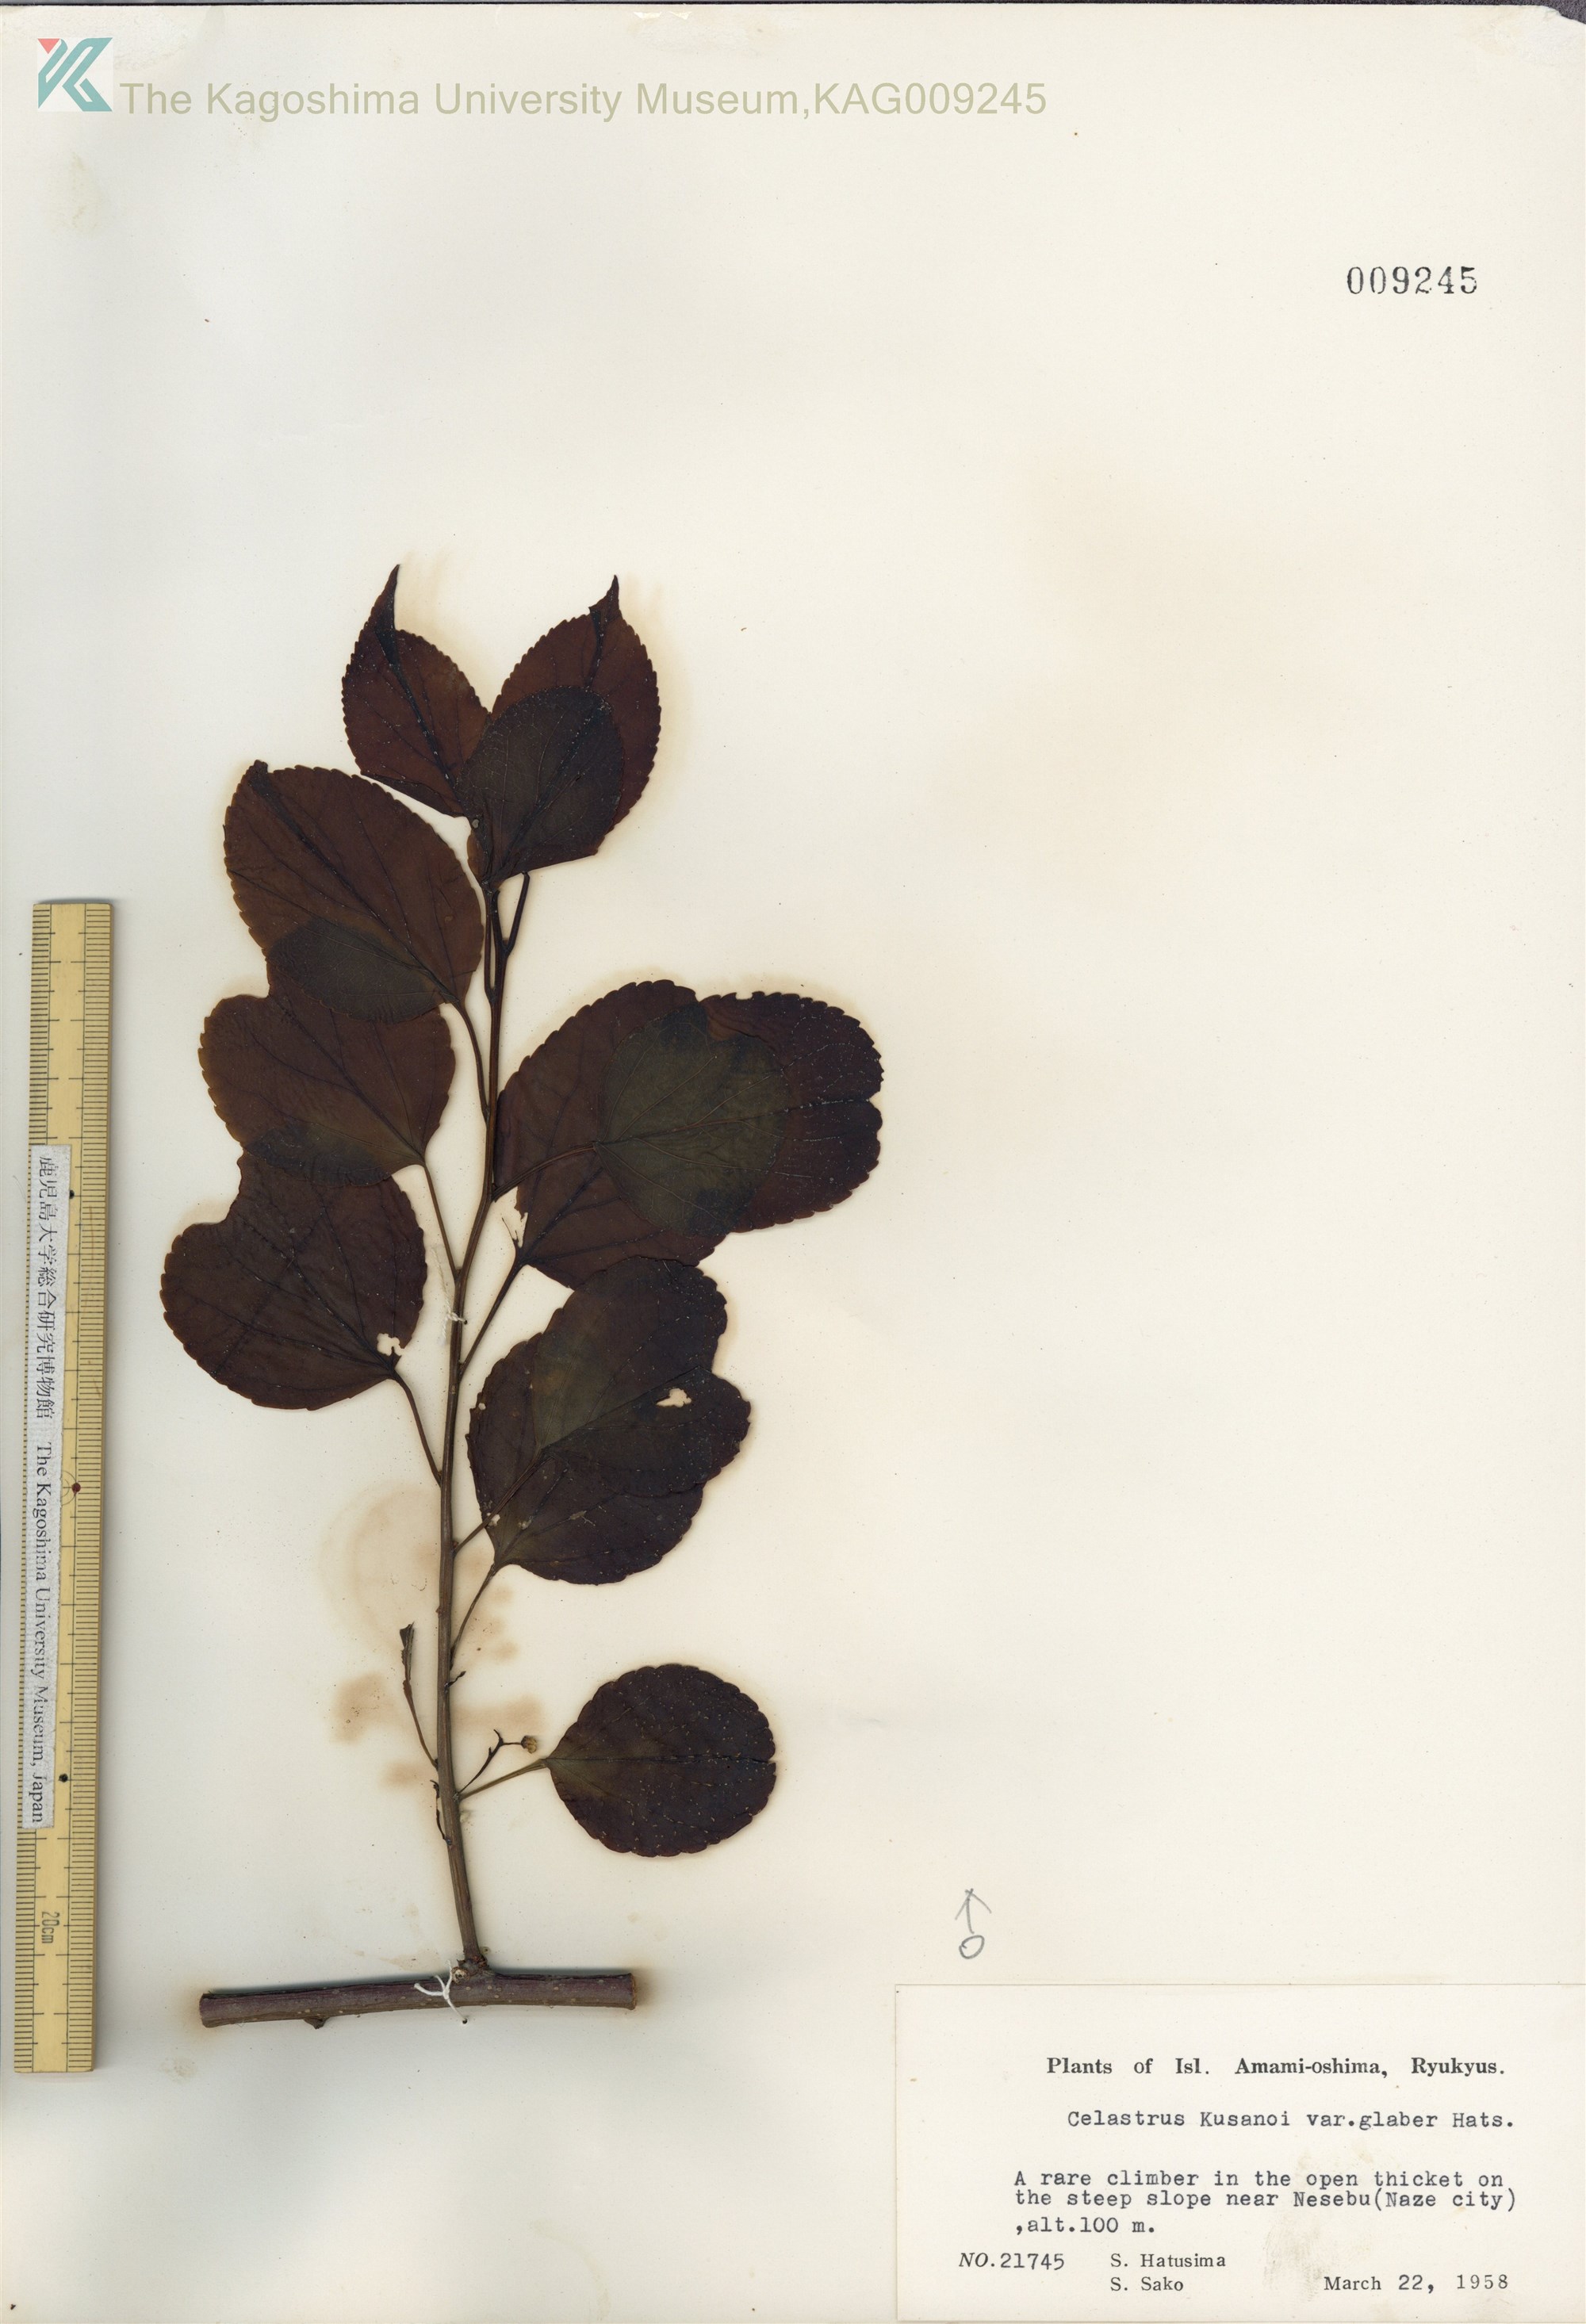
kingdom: Plantae
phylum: Tracheophyta
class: Magnoliopsida
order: Celastrales
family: Celastraceae
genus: Celastrus
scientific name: Celastrus hypoleucus
